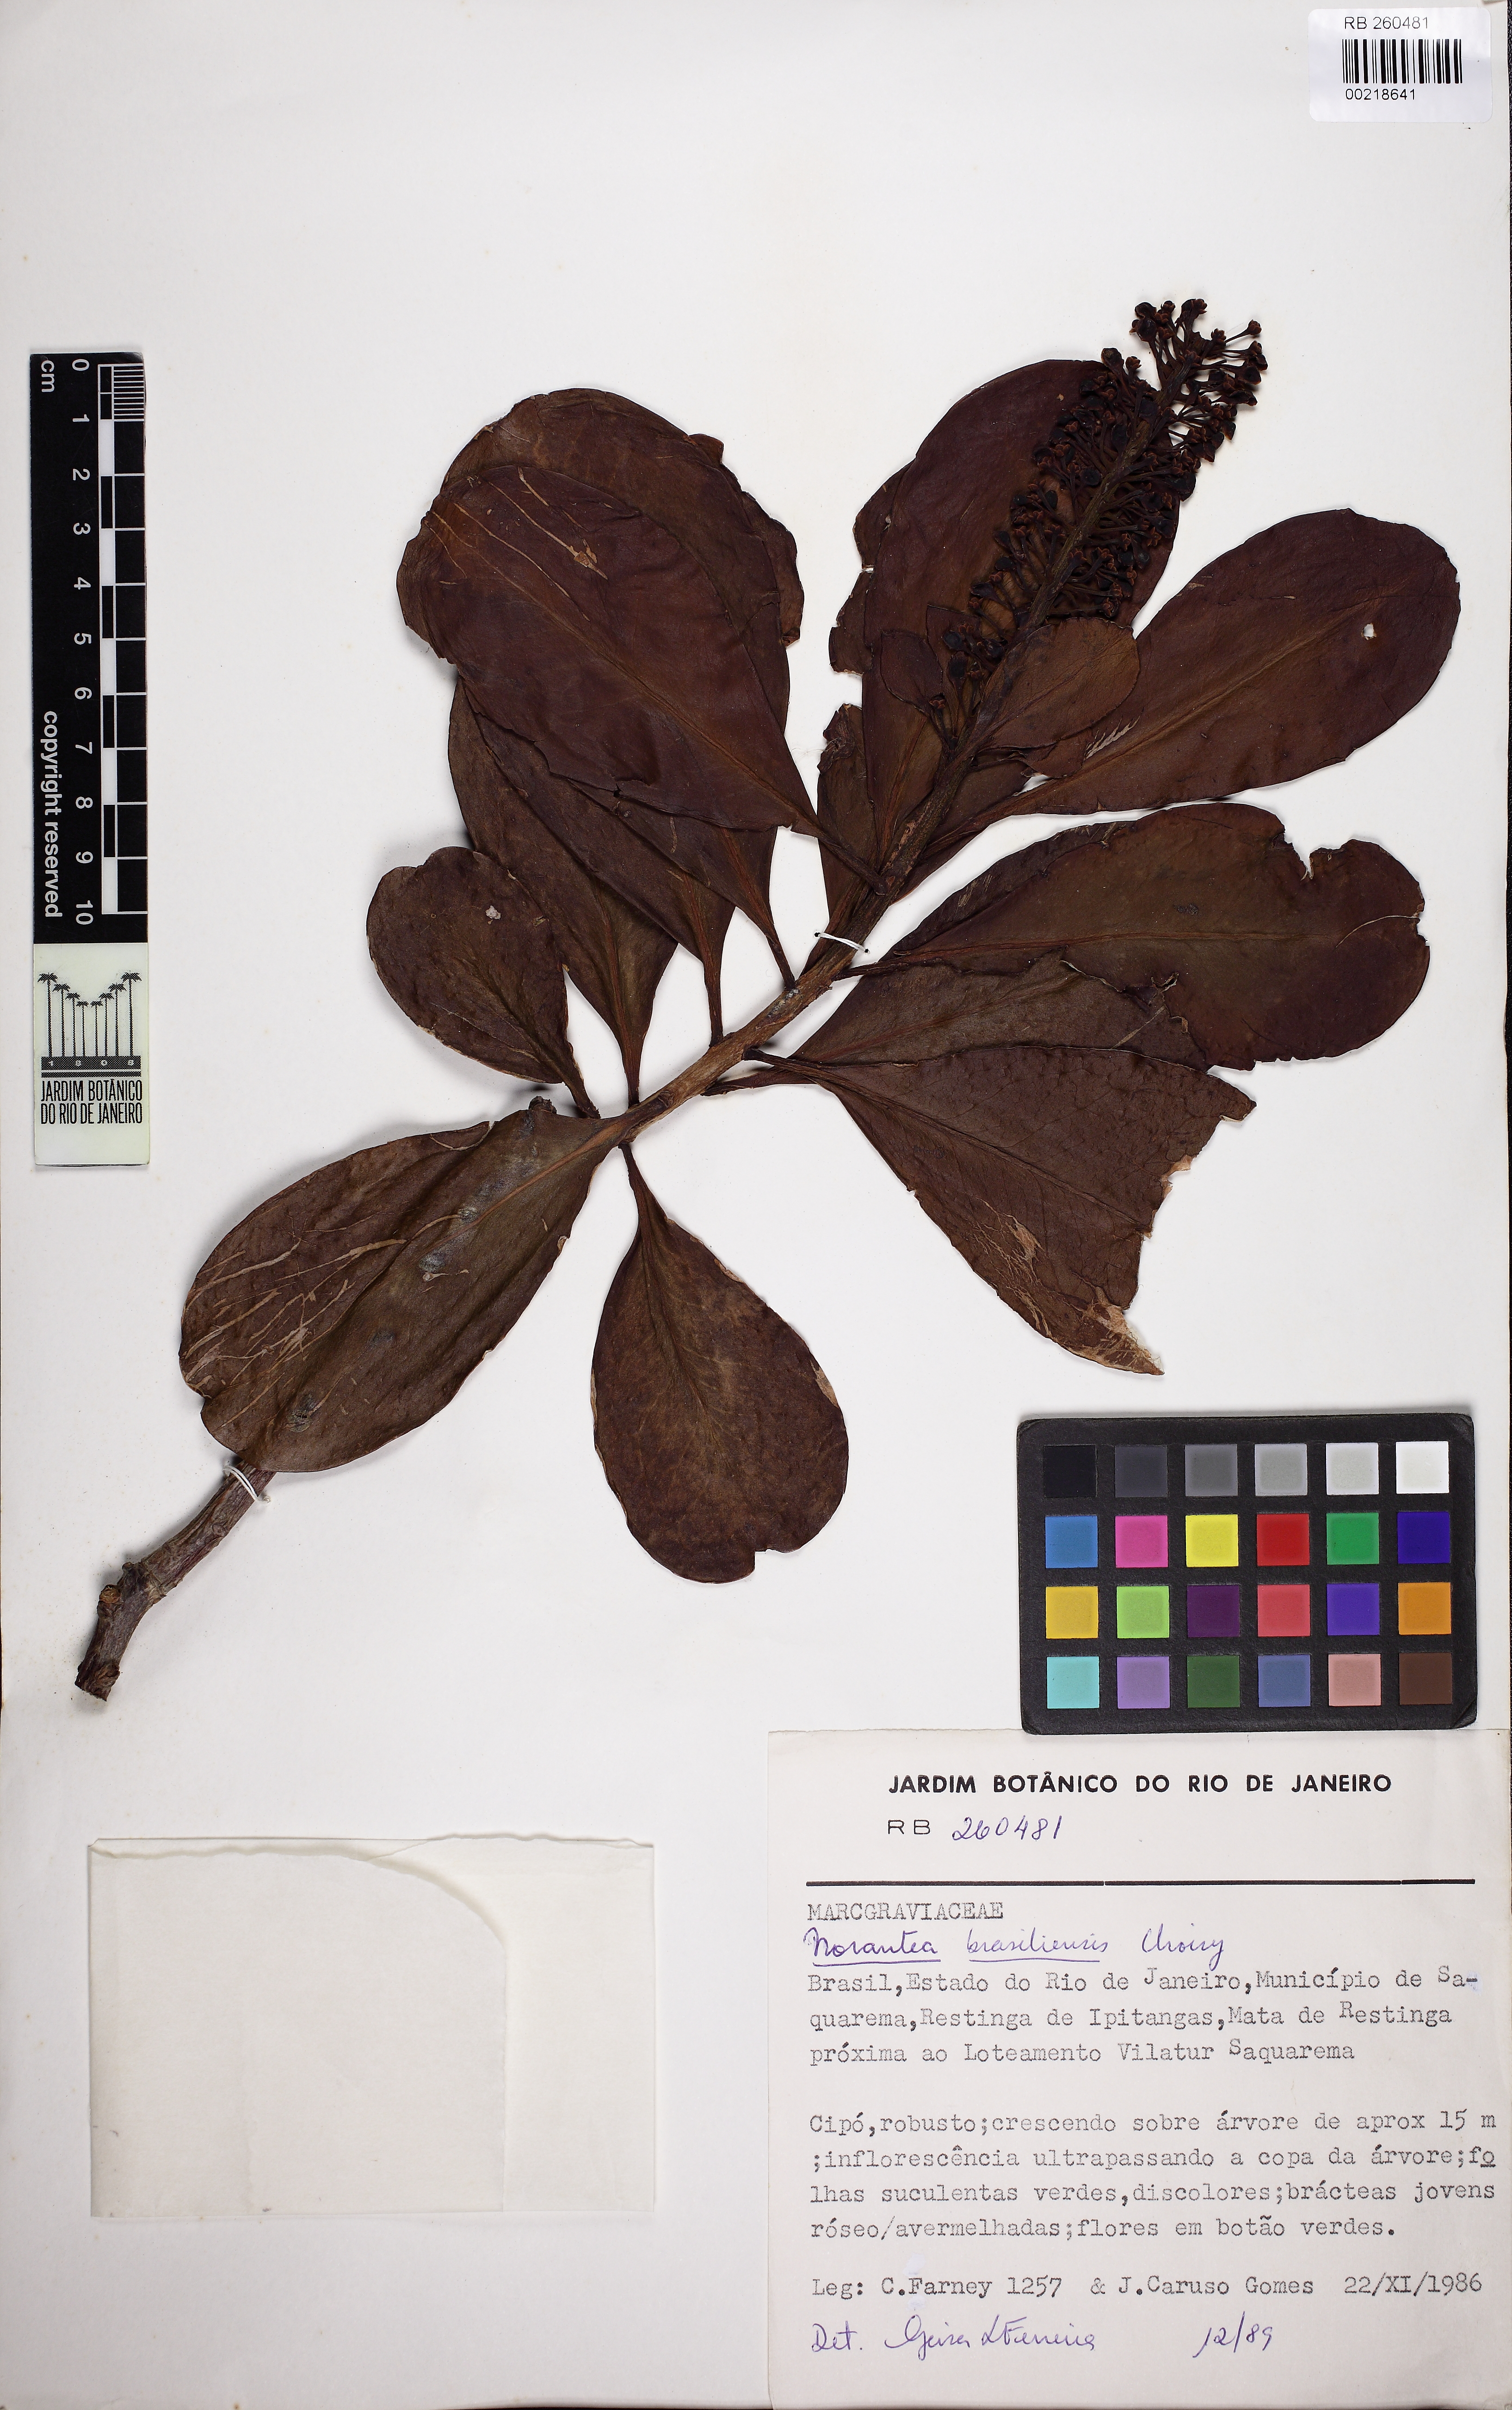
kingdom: Plantae
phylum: Tracheophyta
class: Magnoliopsida
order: Ericales
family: Marcgraviaceae
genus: Schwartzia
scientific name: Schwartzia brasiliensis
